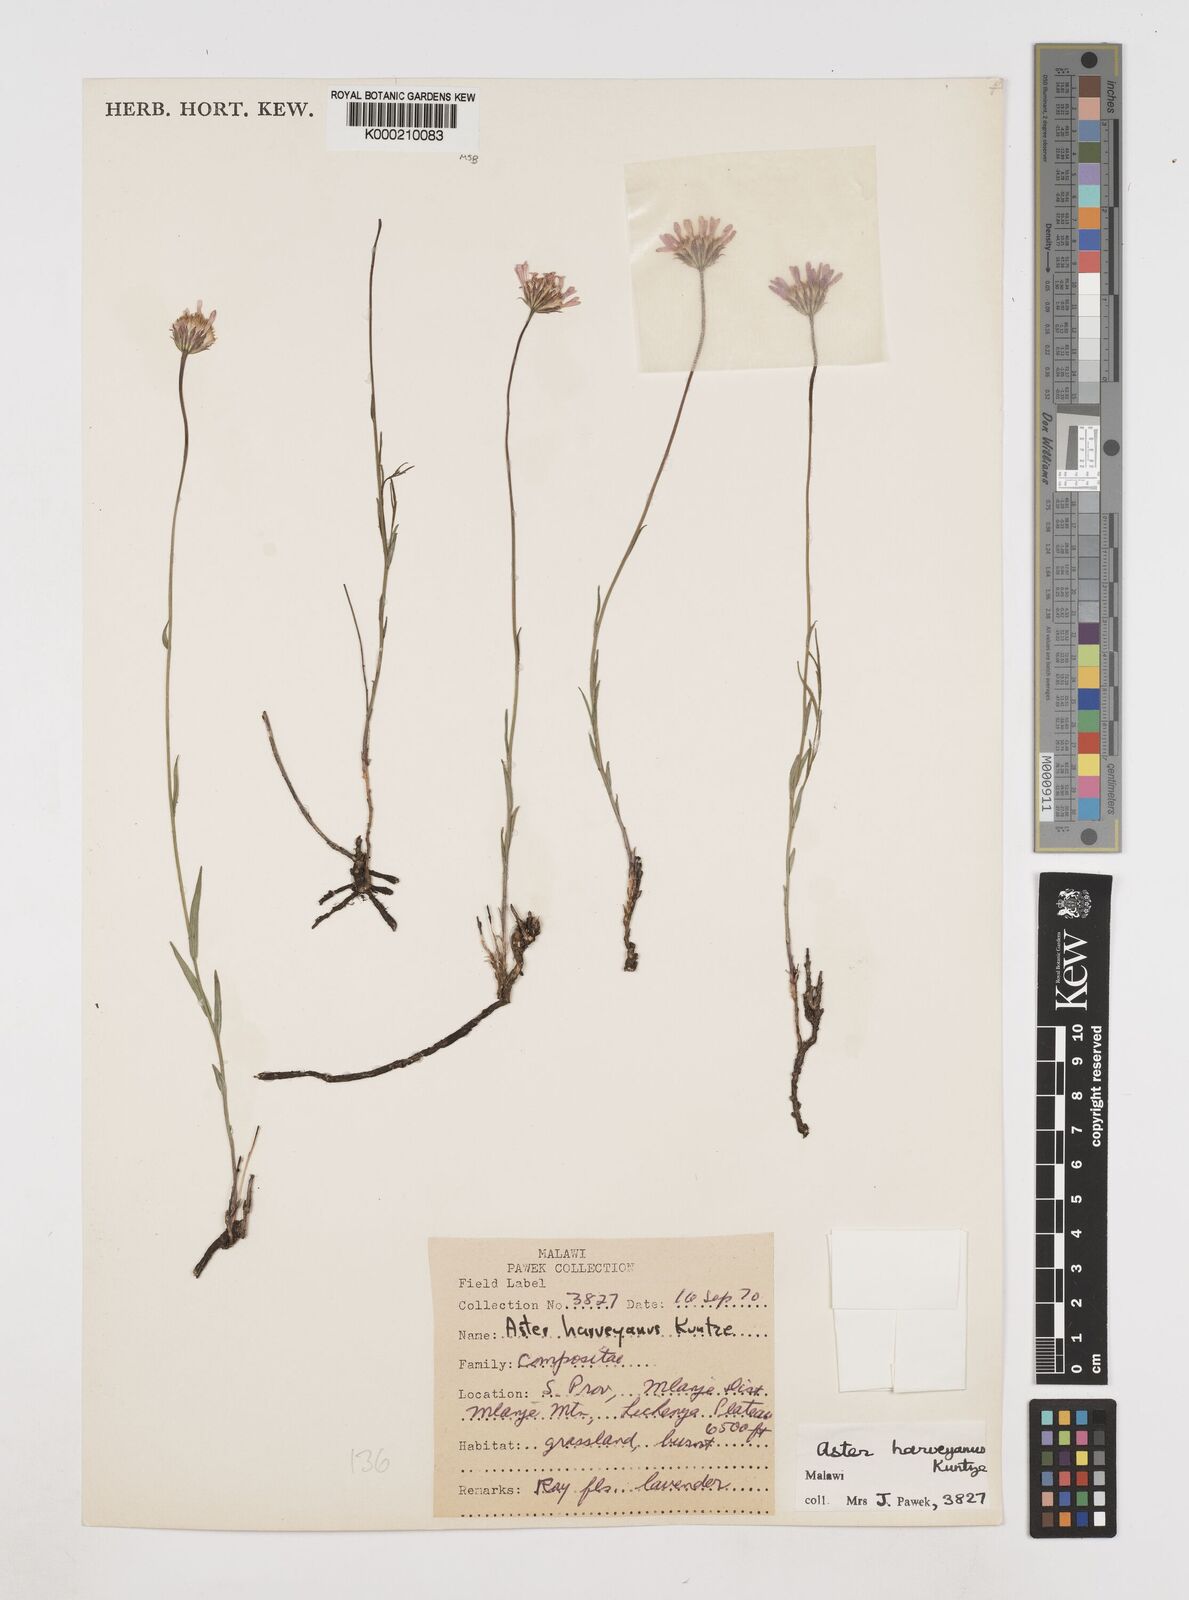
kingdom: Plantae
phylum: Tracheophyta
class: Magnoliopsida
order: Asterales
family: Asteraceae
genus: Afroaster
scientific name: Afroaster milanjiensis
